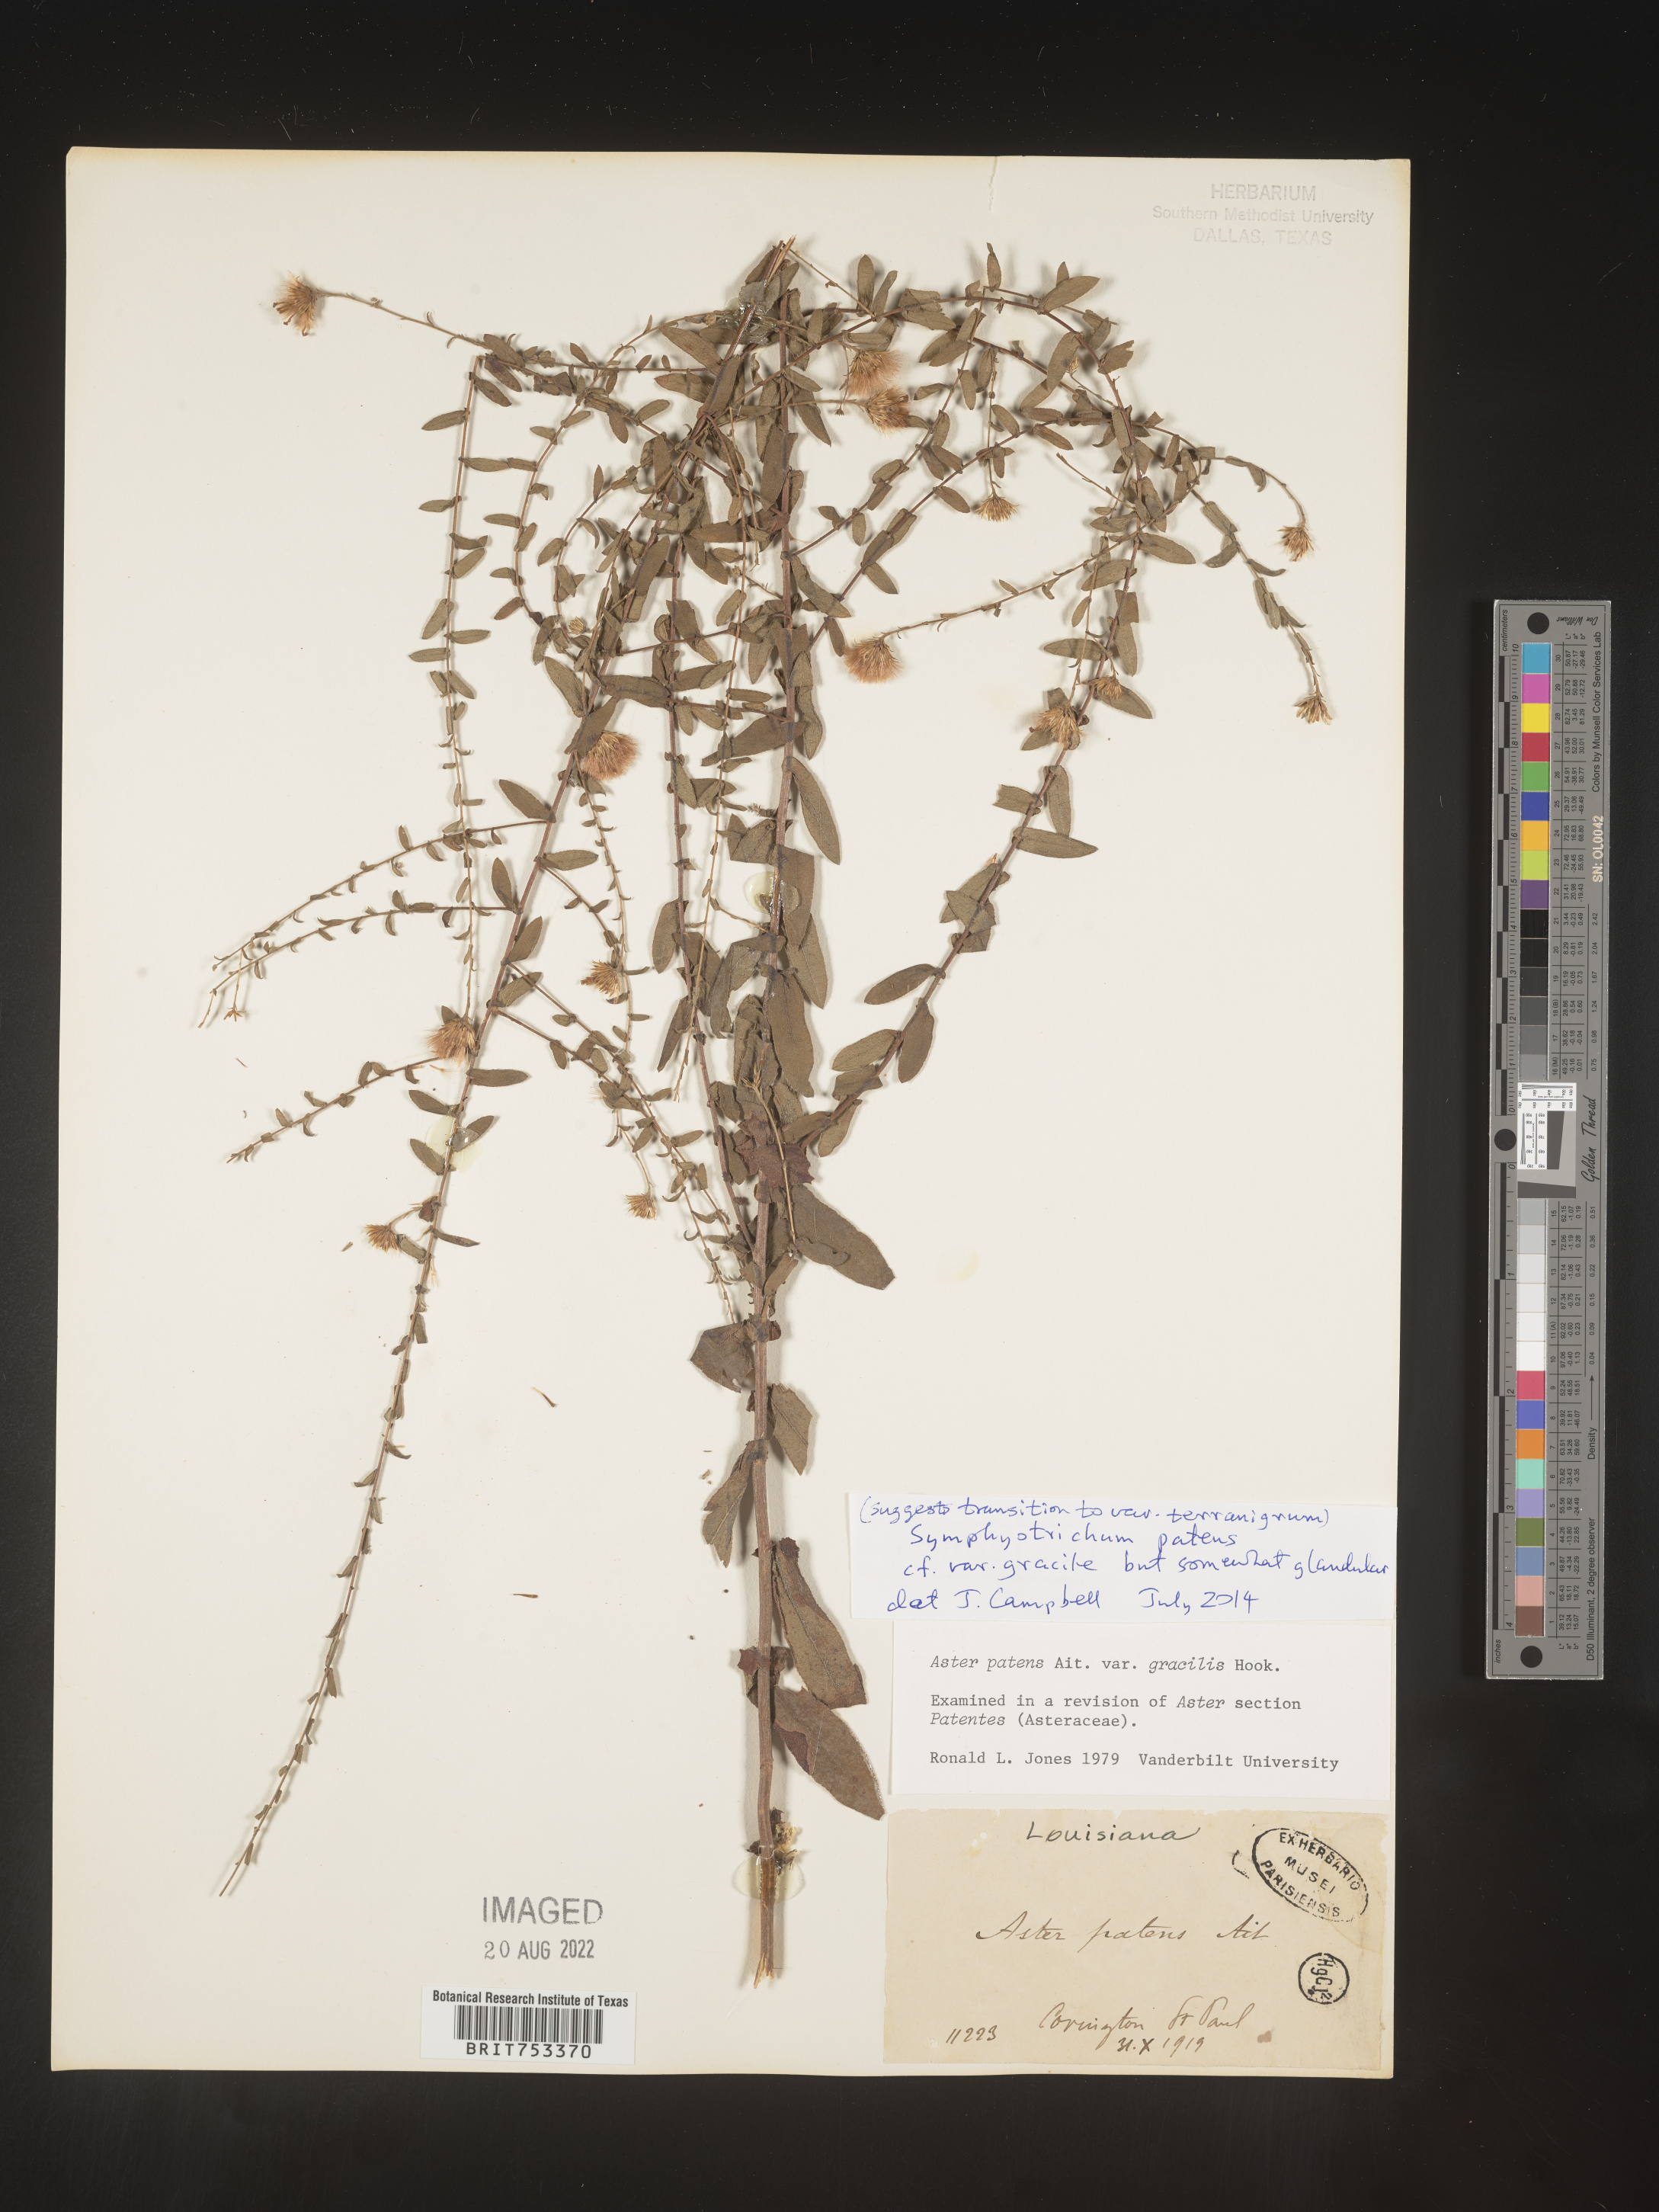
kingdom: Plantae
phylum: Tracheophyta
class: Magnoliopsida
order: Asterales
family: Asteraceae
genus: Symphyotrichum
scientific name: Symphyotrichum patens
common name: Late purple aster
